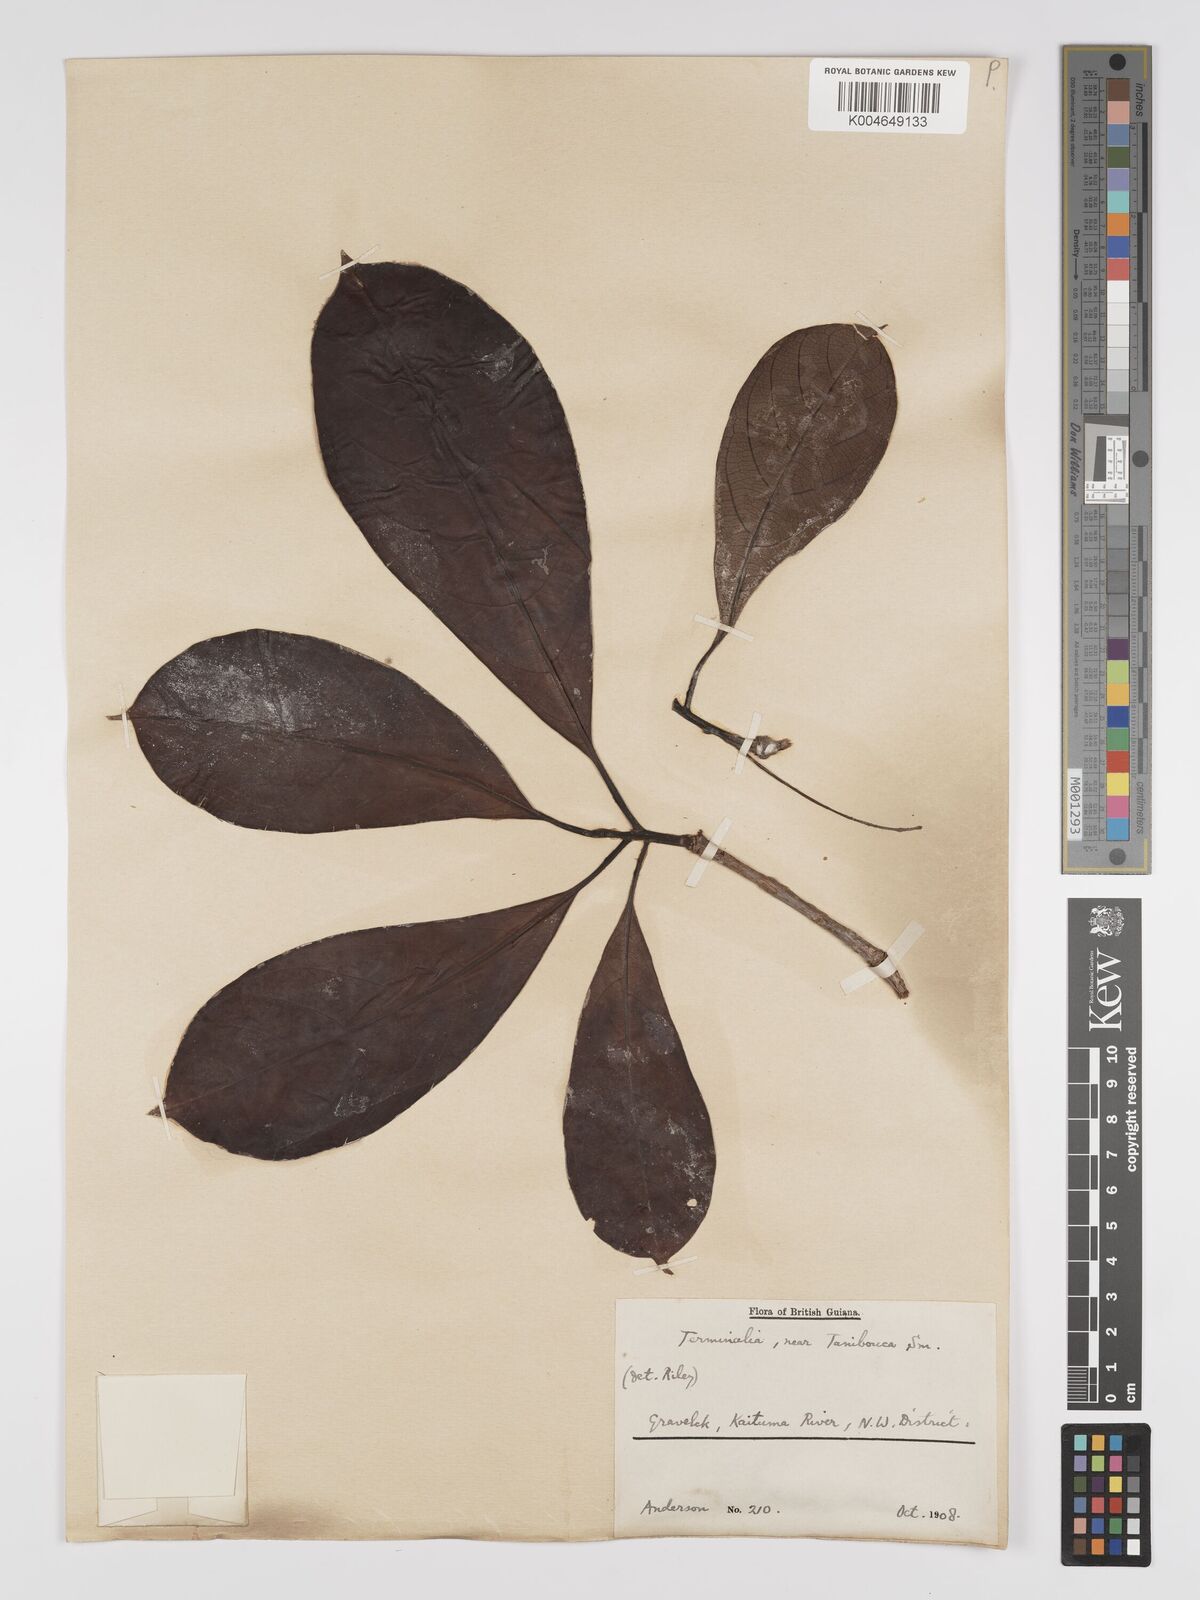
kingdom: Plantae
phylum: Tracheophyta
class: Magnoliopsida
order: Myrtales
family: Combretaceae
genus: Terminalia
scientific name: Terminalia dichotoma
